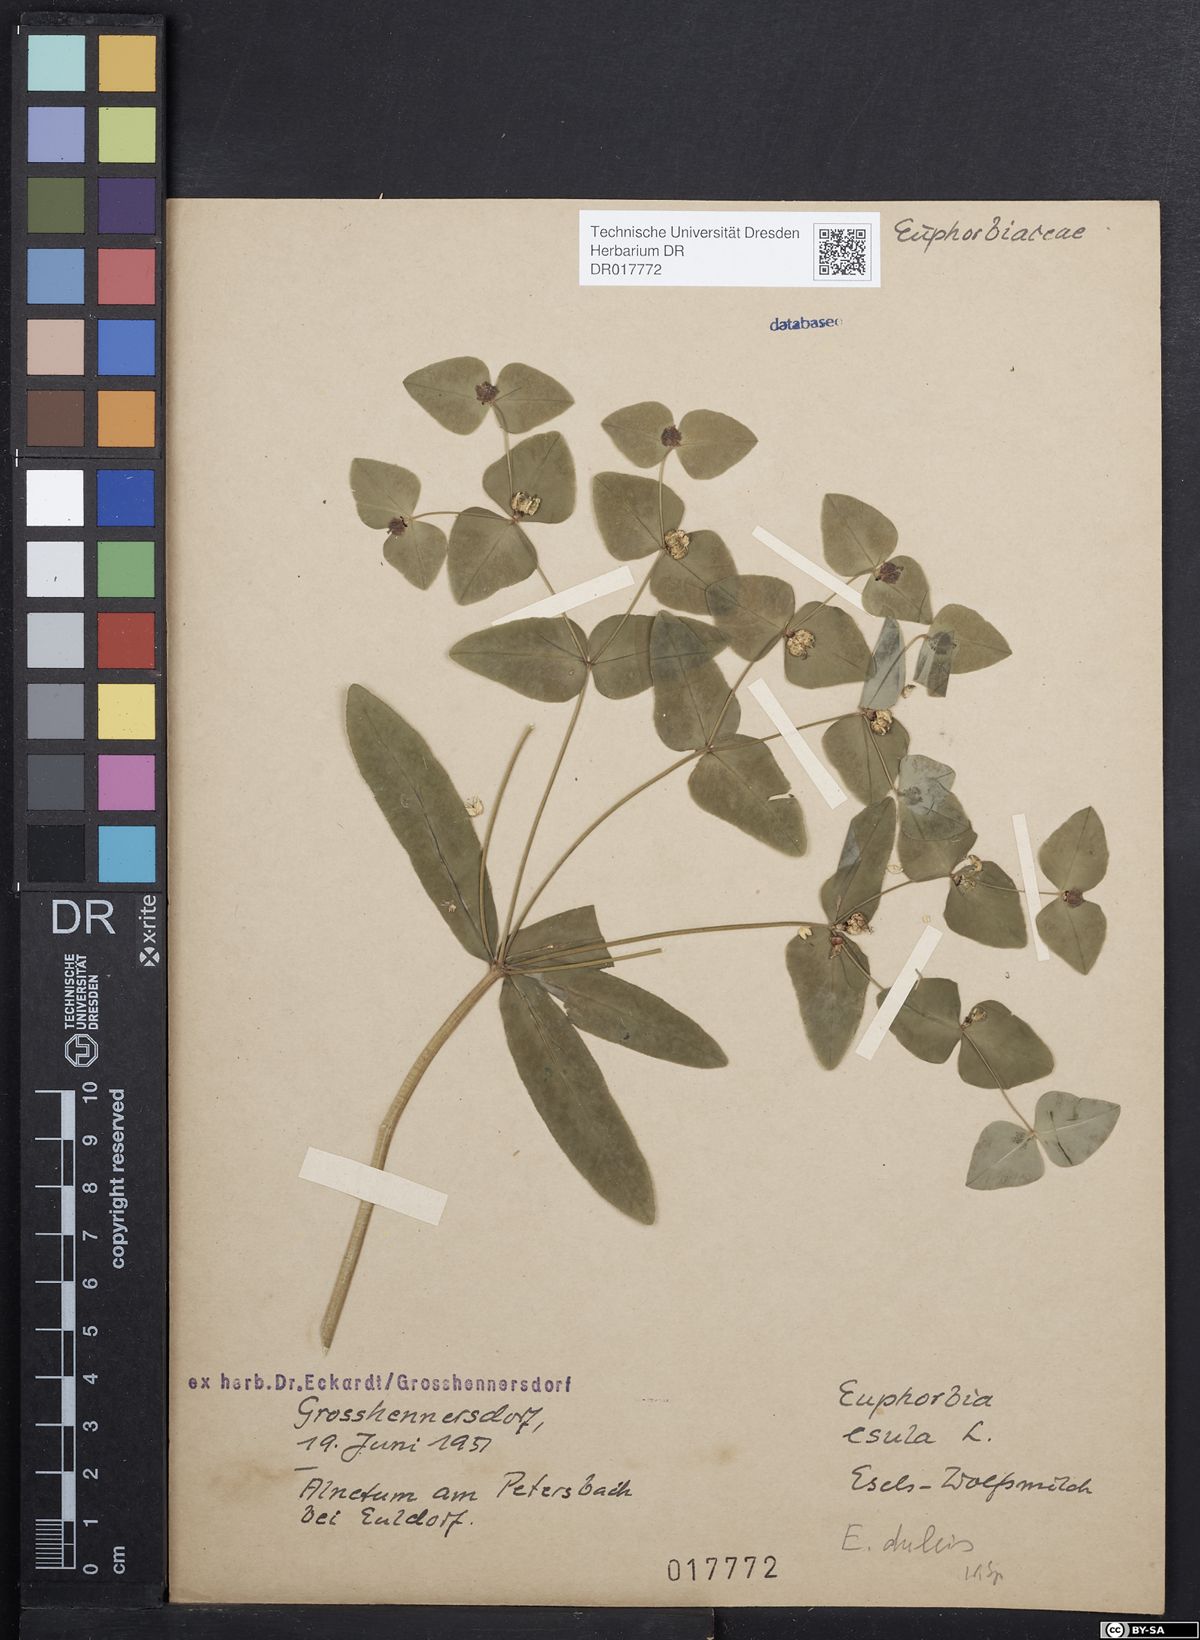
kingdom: Plantae
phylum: Tracheophyta
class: Magnoliopsida
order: Malpighiales
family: Euphorbiaceae
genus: Euphorbia
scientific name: Euphorbia dulcis
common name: Sweet spurge
